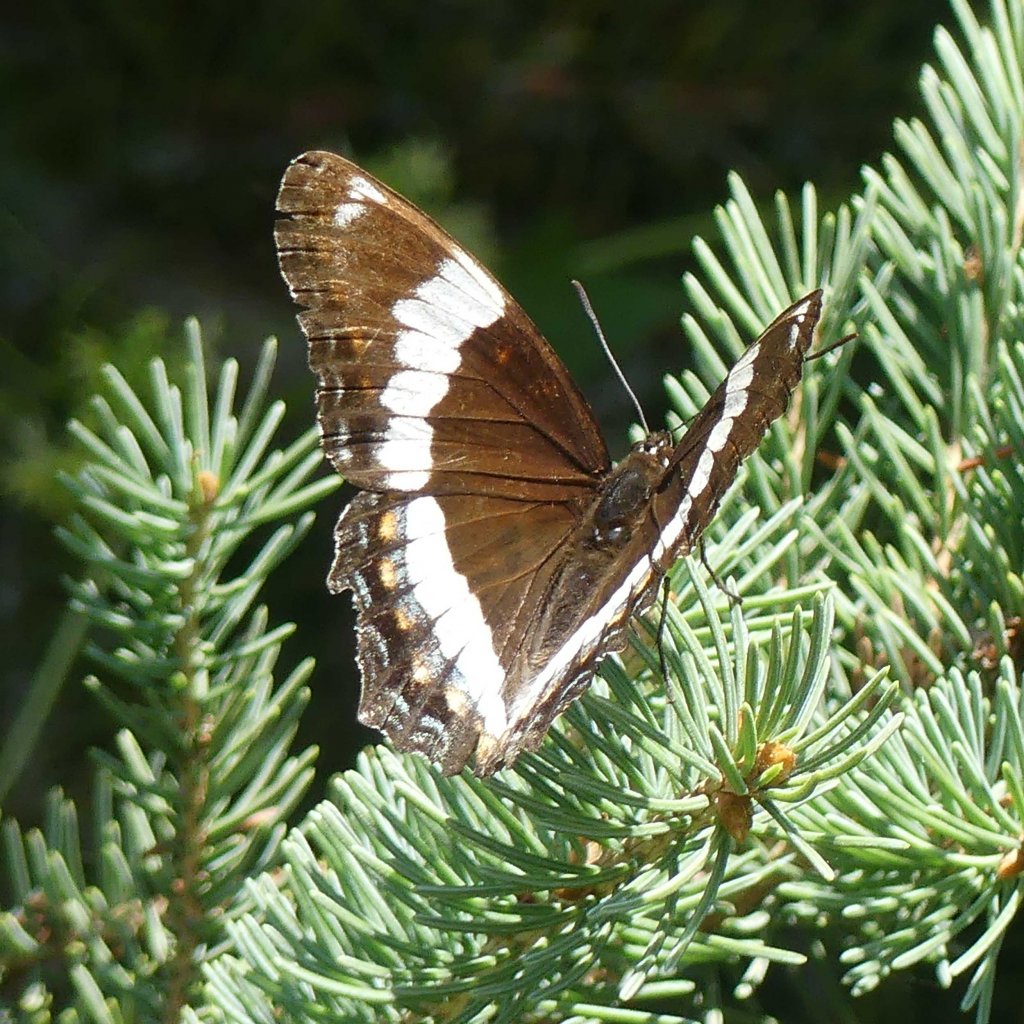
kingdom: Animalia
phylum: Arthropoda
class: Insecta
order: Lepidoptera
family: Nymphalidae
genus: Limenitis
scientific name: Limenitis arthemis
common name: Red-spotted Admiral
